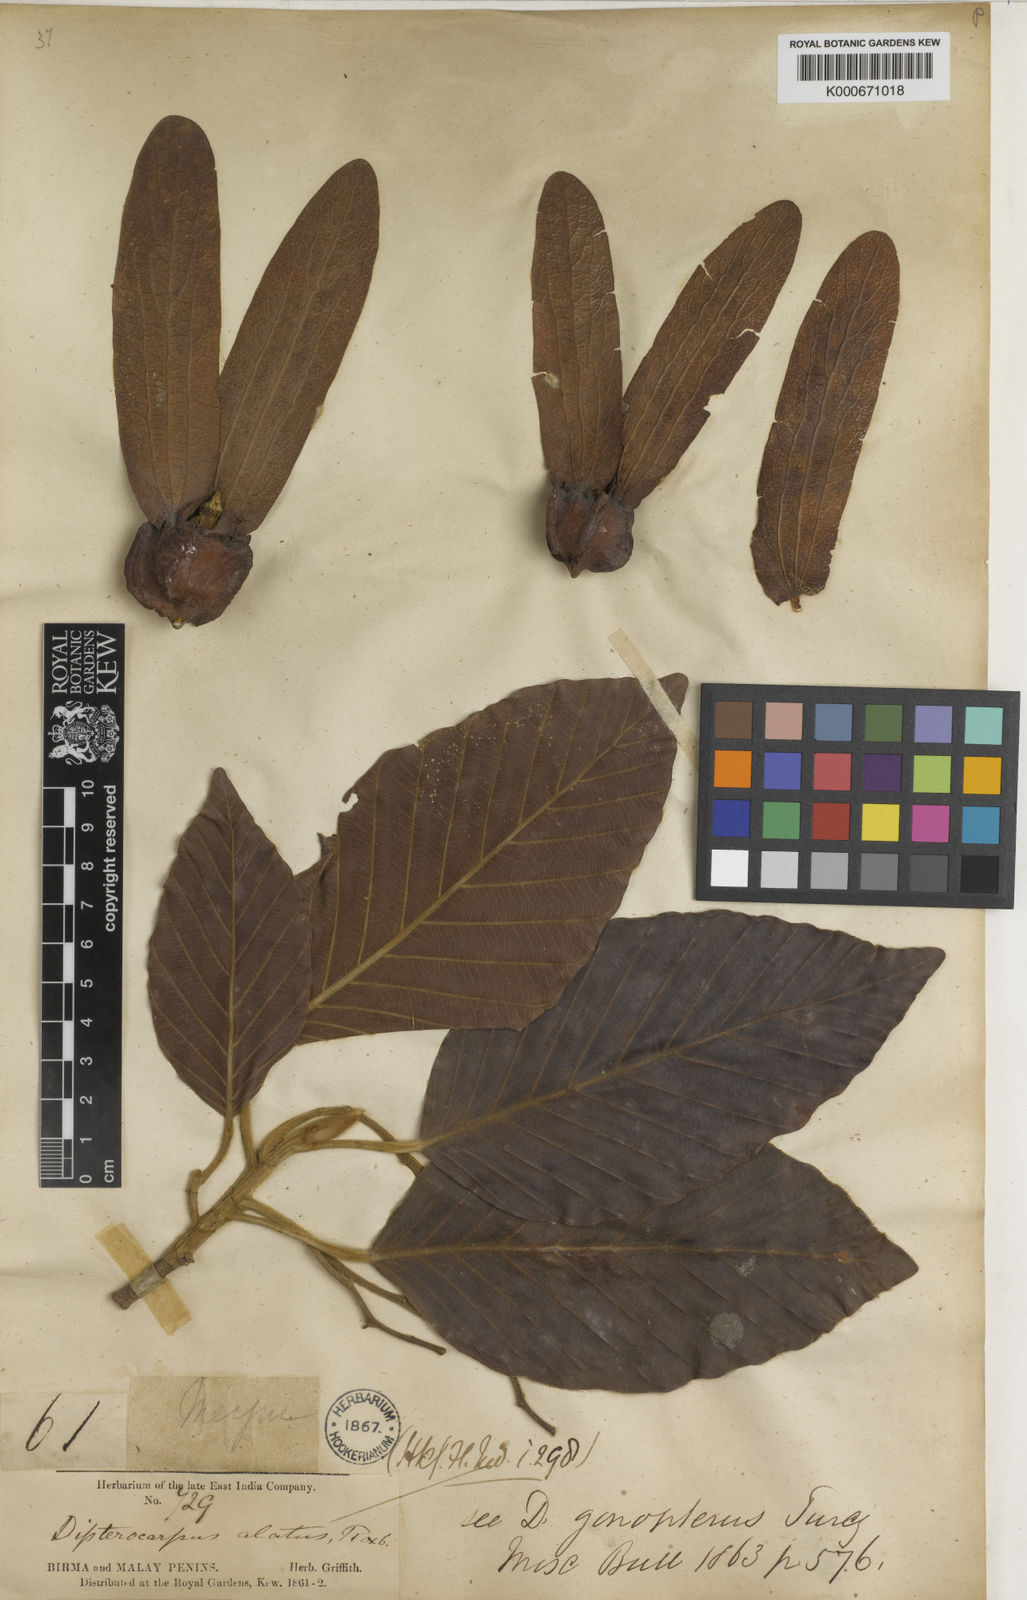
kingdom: Plantae
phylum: Tracheophyta
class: Magnoliopsida
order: Malvales
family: Dipterocarpaceae
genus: Dipterocarpus
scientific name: Dipterocarpus
